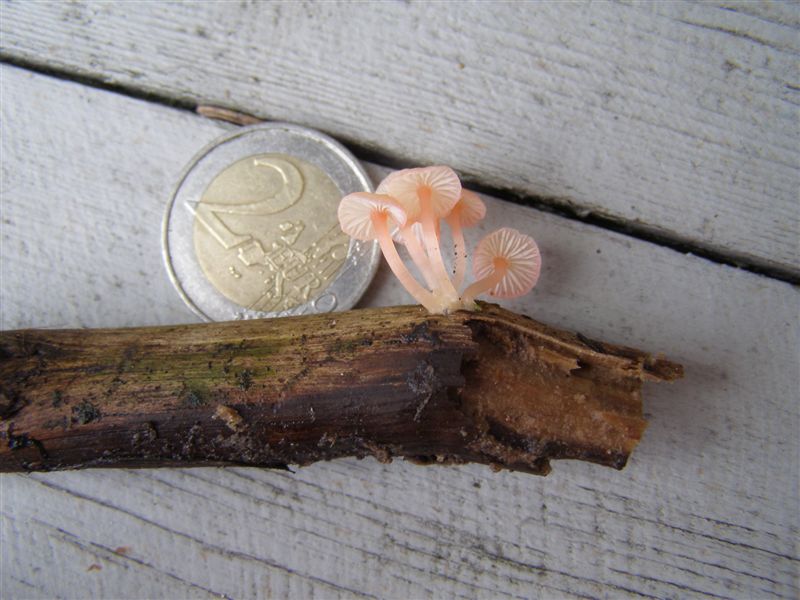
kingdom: Fungi
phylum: Basidiomycota
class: Agaricomycetes
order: Agaricales
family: Mycenaceae
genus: Mycena
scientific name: Mycena coccinea
